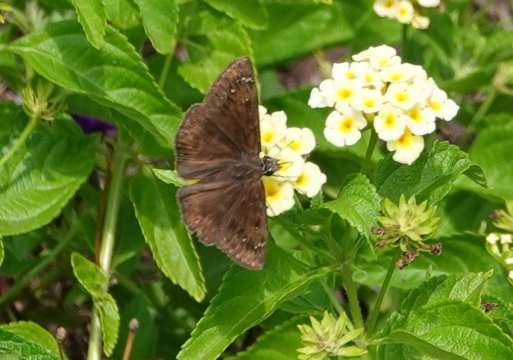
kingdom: Animalia
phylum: Arthropoda
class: Insecta
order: Lepidoptera
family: Hesperiidae
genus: Gesta
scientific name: Gesta
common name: Horace's Duskywing
